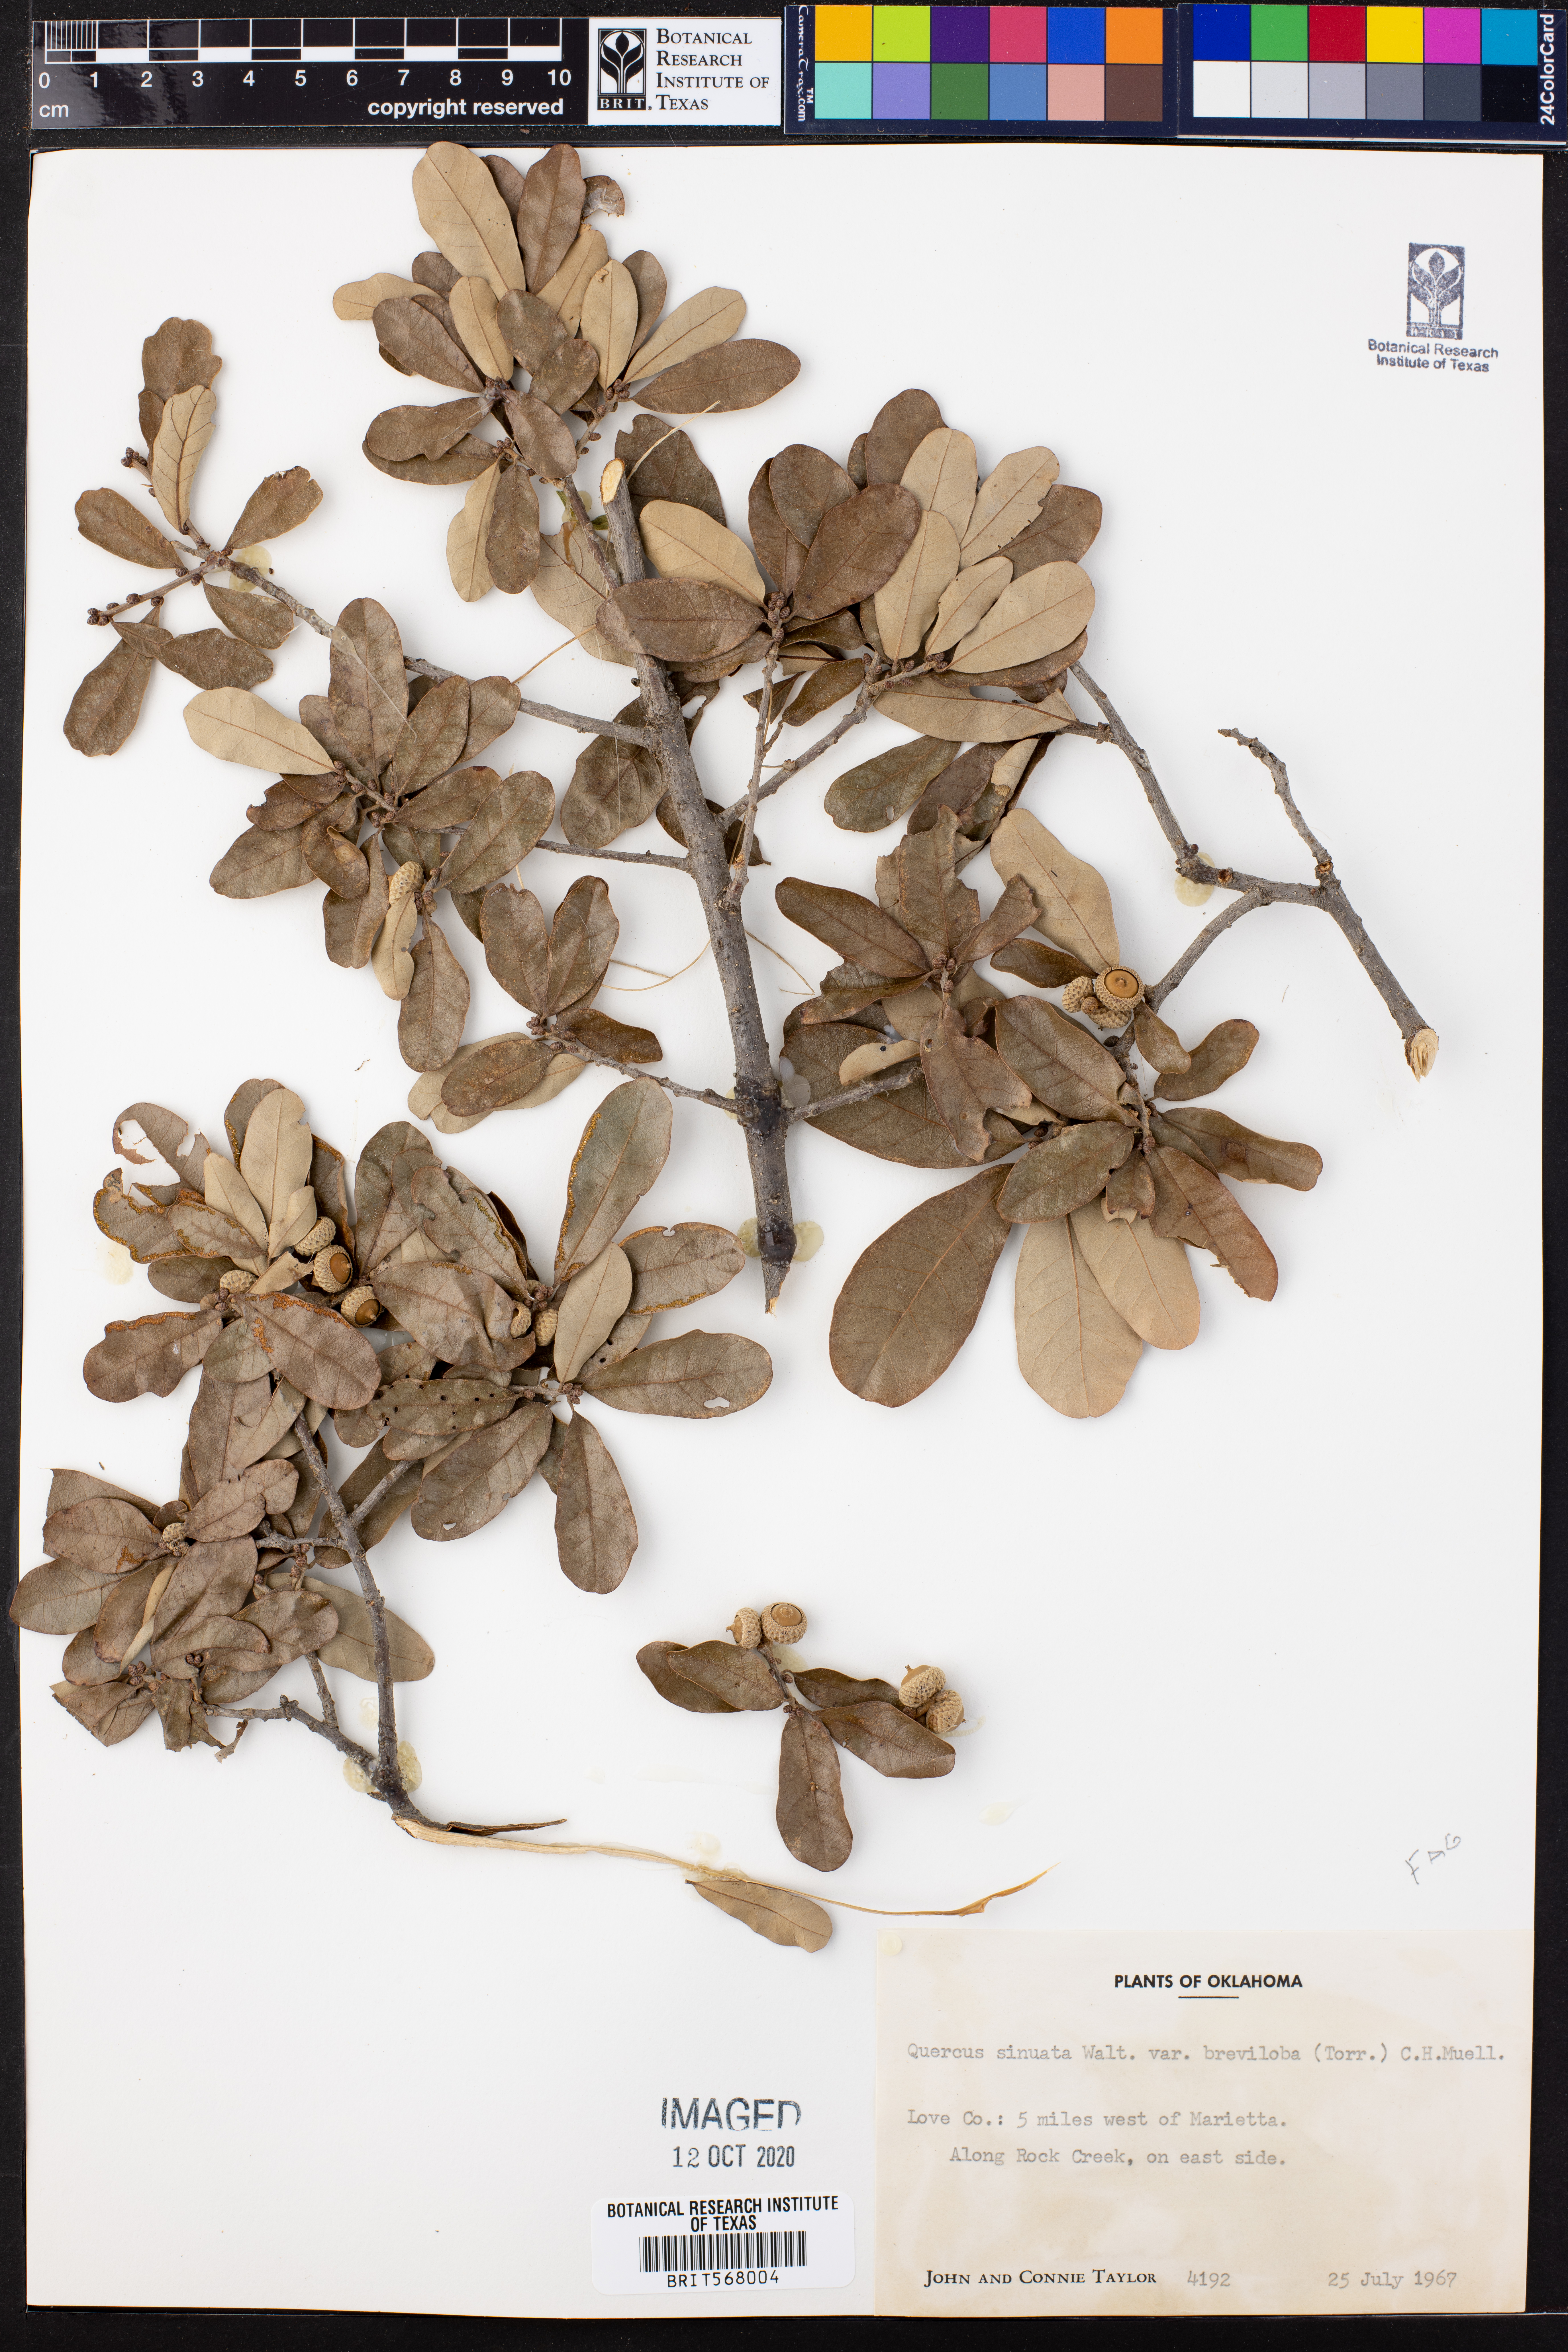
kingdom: Plantae
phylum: Tracheophyta
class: Magnoliopsida
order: Fagales
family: Fagaceae
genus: Quercus
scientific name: Quercus sinuata
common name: Durand oak
